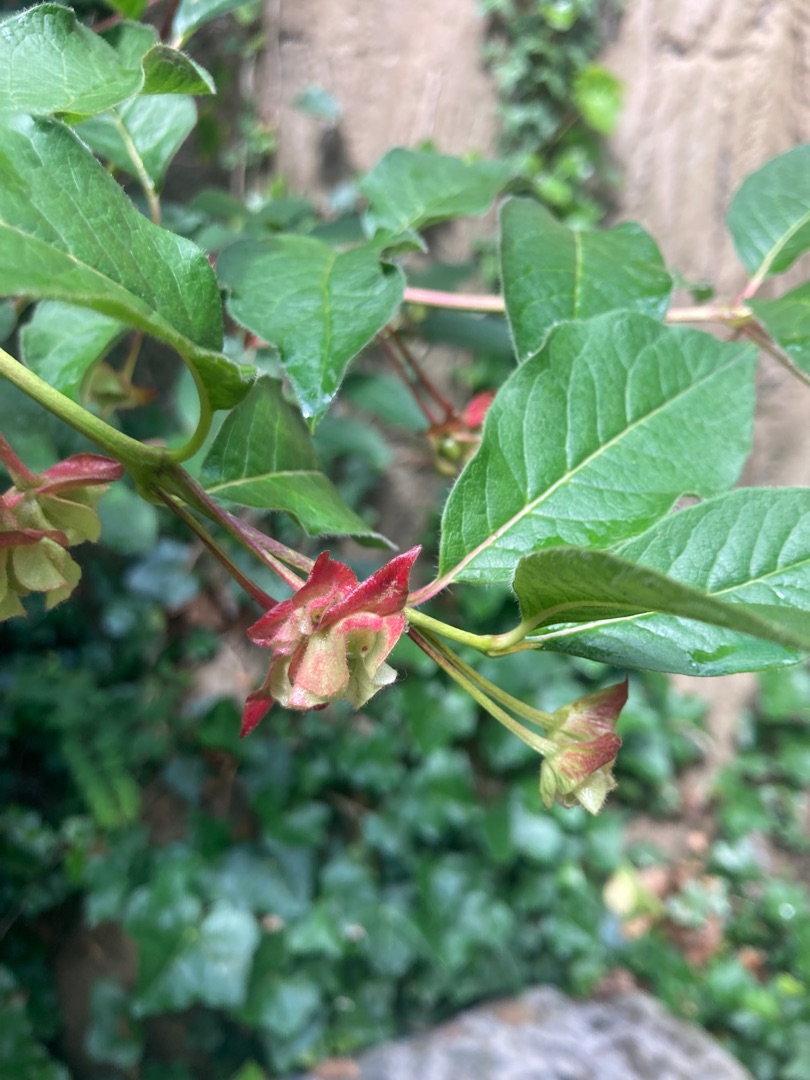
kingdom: Plantae
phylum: Tracheophyta
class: Magnoliopsida
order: Dipsacales
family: Caprifoliaceae
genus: Lonicera
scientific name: Lonicera involucrata
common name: Svøb-gedeblad
